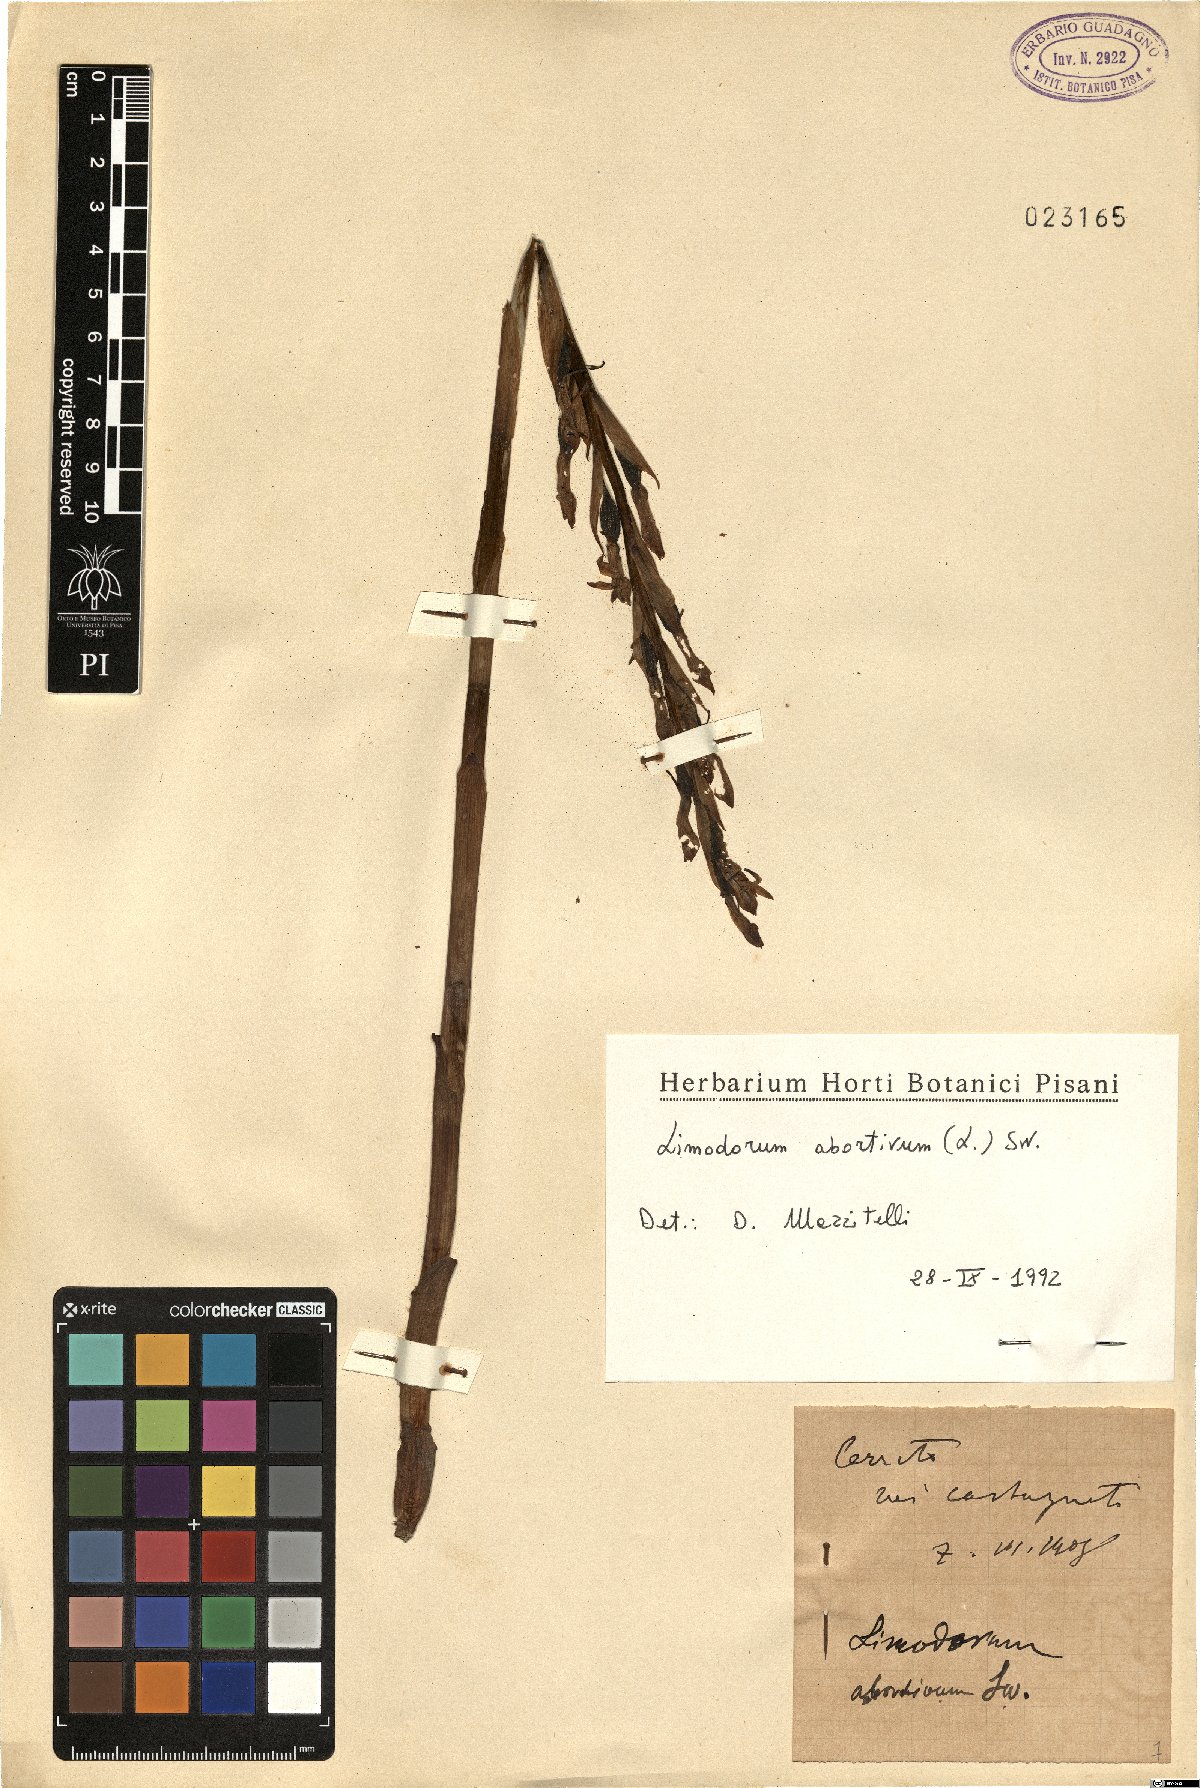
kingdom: Plantae
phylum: Tracheophyta
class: Liliopsida
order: Asparagales
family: Orchidaceae
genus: Limodorum
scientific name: Limodorum abortivum
